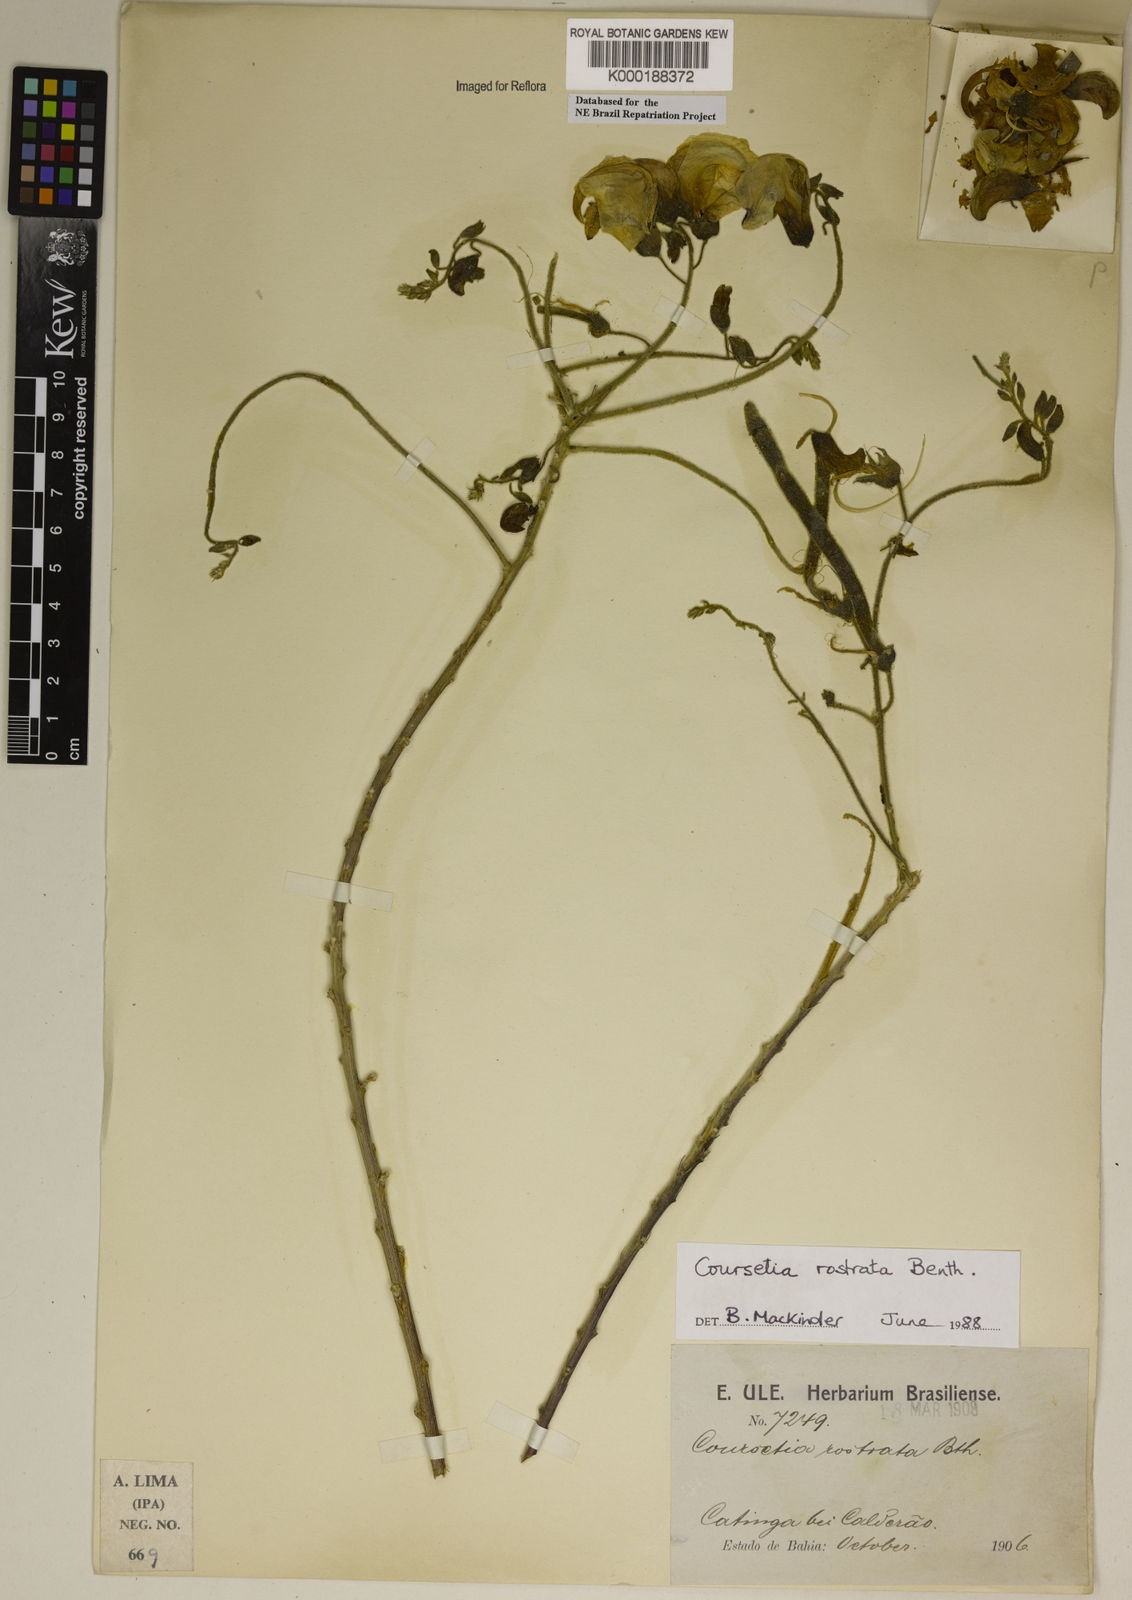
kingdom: Plantae
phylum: Tracheophyta
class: Magnoliopsida
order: Fabales
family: Fabaceae
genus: Coursetia
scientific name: Coursetia rostrata
